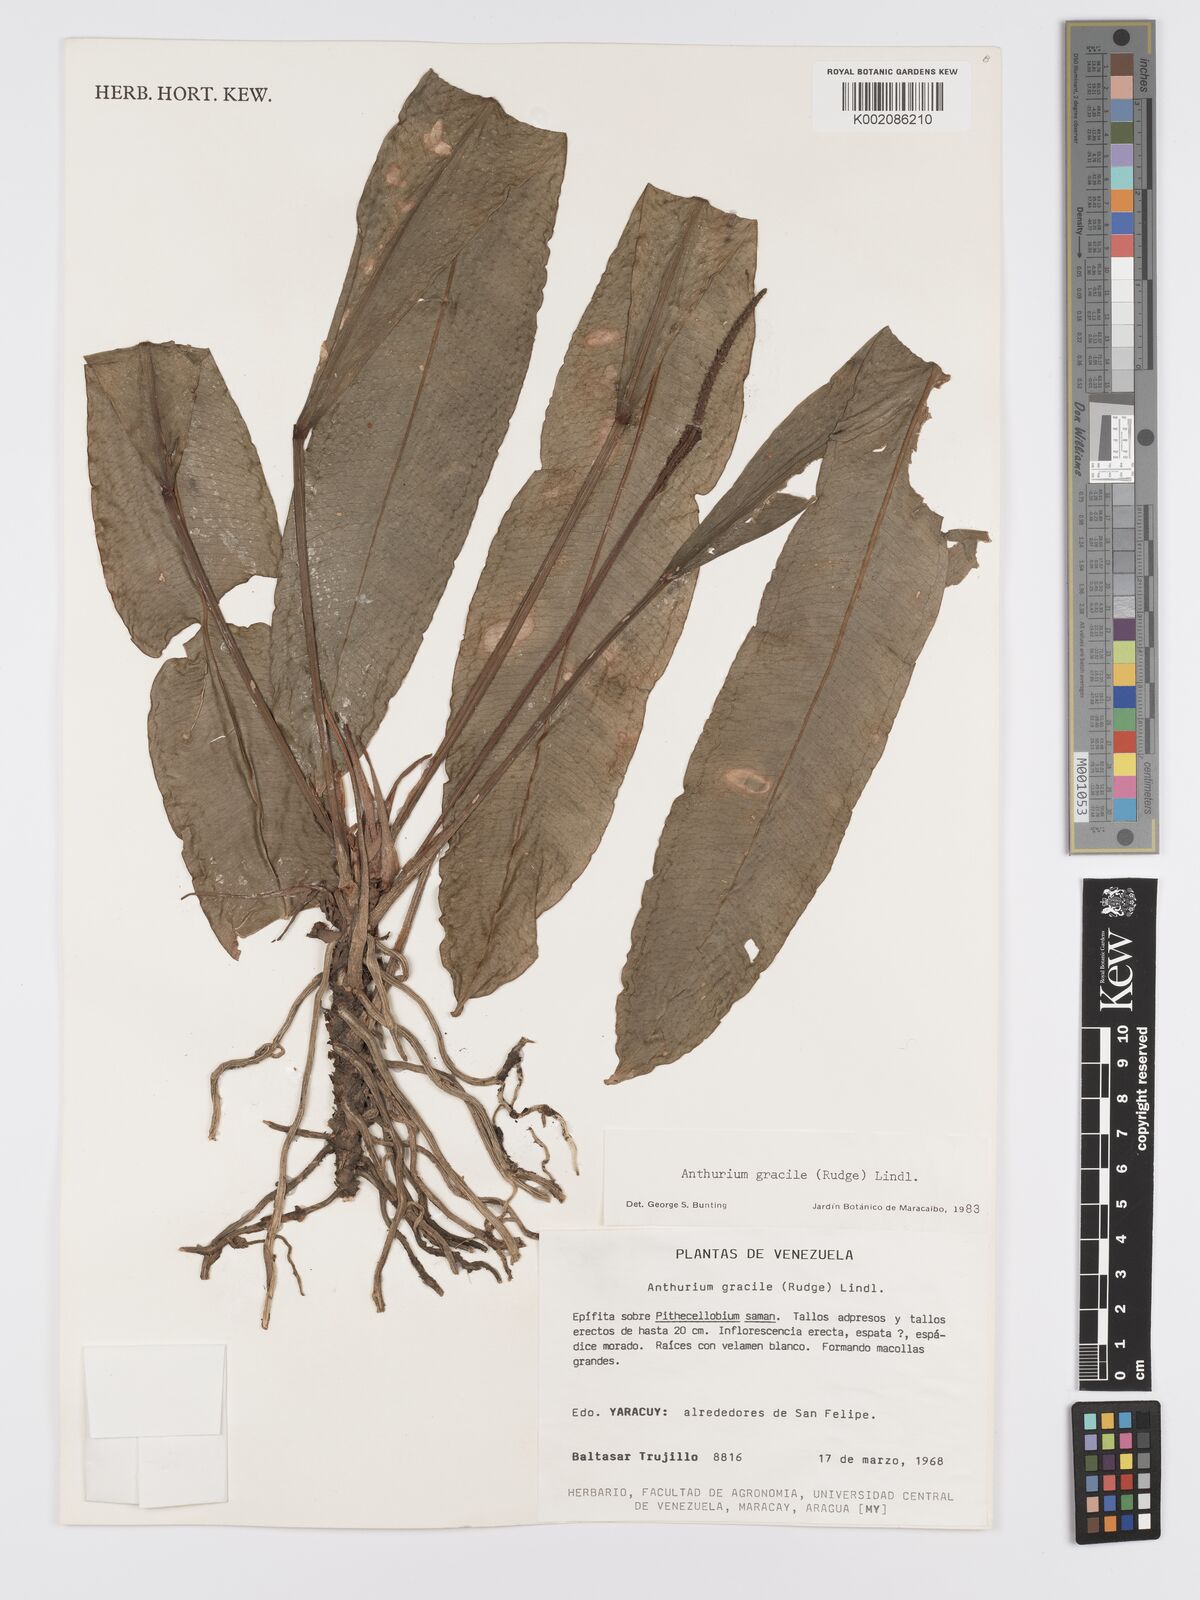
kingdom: Plantae
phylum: Tracheophyta
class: Liliopsida
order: Alismatales
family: Araceae
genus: Anthurium
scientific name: Anthurium gracile
